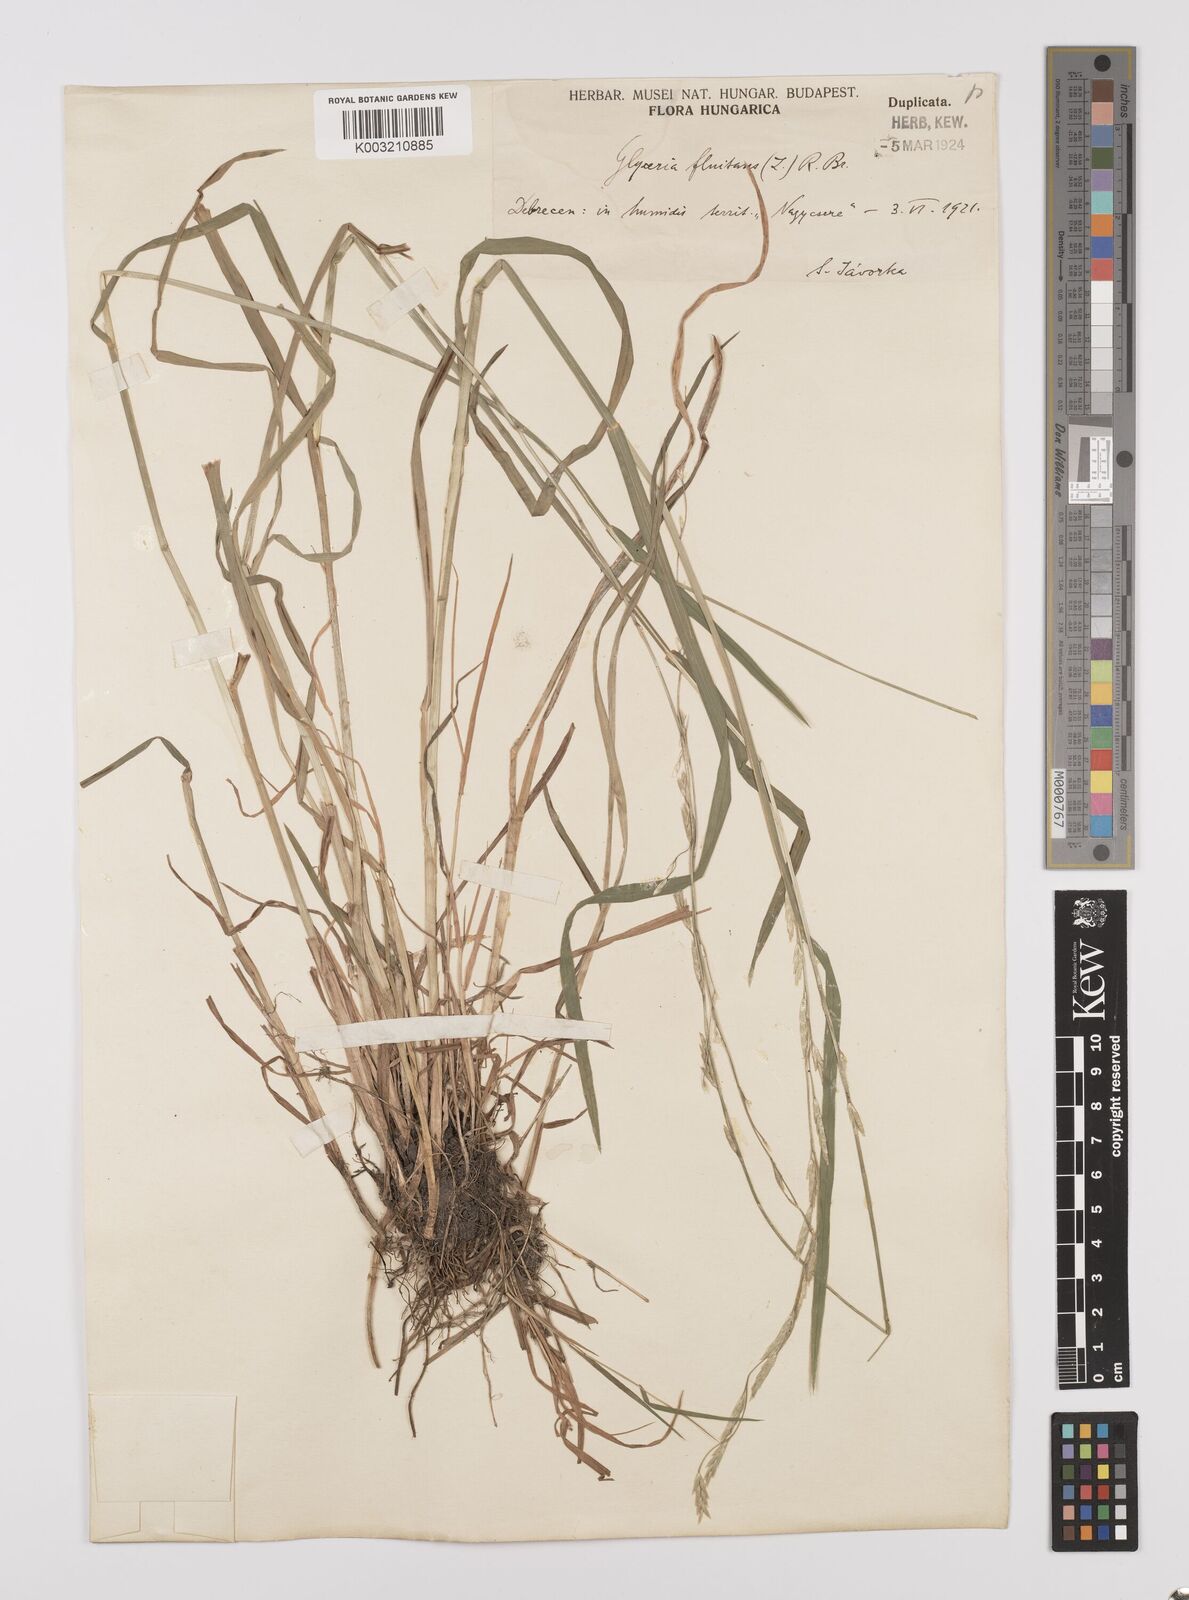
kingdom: Plantae
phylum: Tracheophyta
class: Liliopsida
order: Poales
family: Poaceae
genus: Glyceria
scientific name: Glyceria fluitans
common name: Floating sweet-grass
